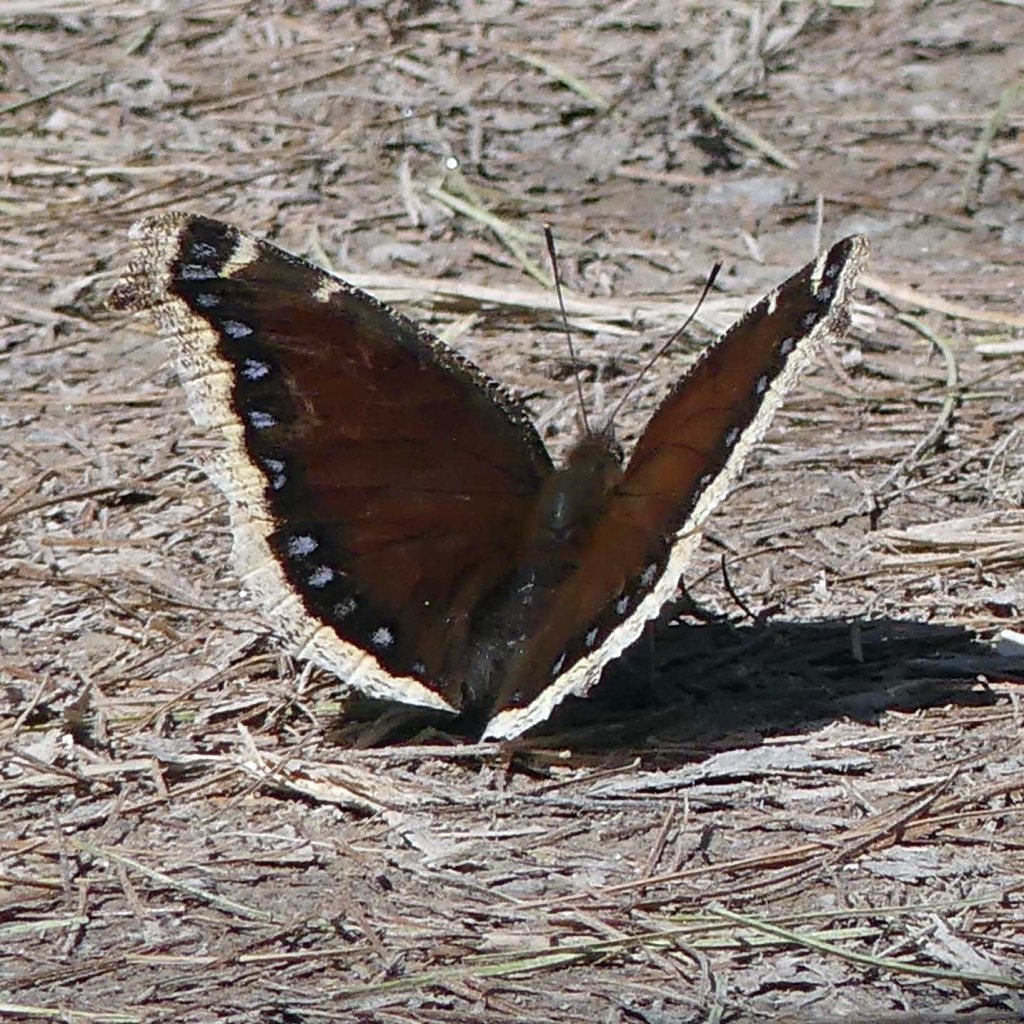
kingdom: Animalia
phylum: Arthropoda
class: Insecta
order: Lepidoptera
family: Nymphalidae
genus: Nymphalis
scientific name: Nymphalis antiopa
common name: Mourning Cloak
